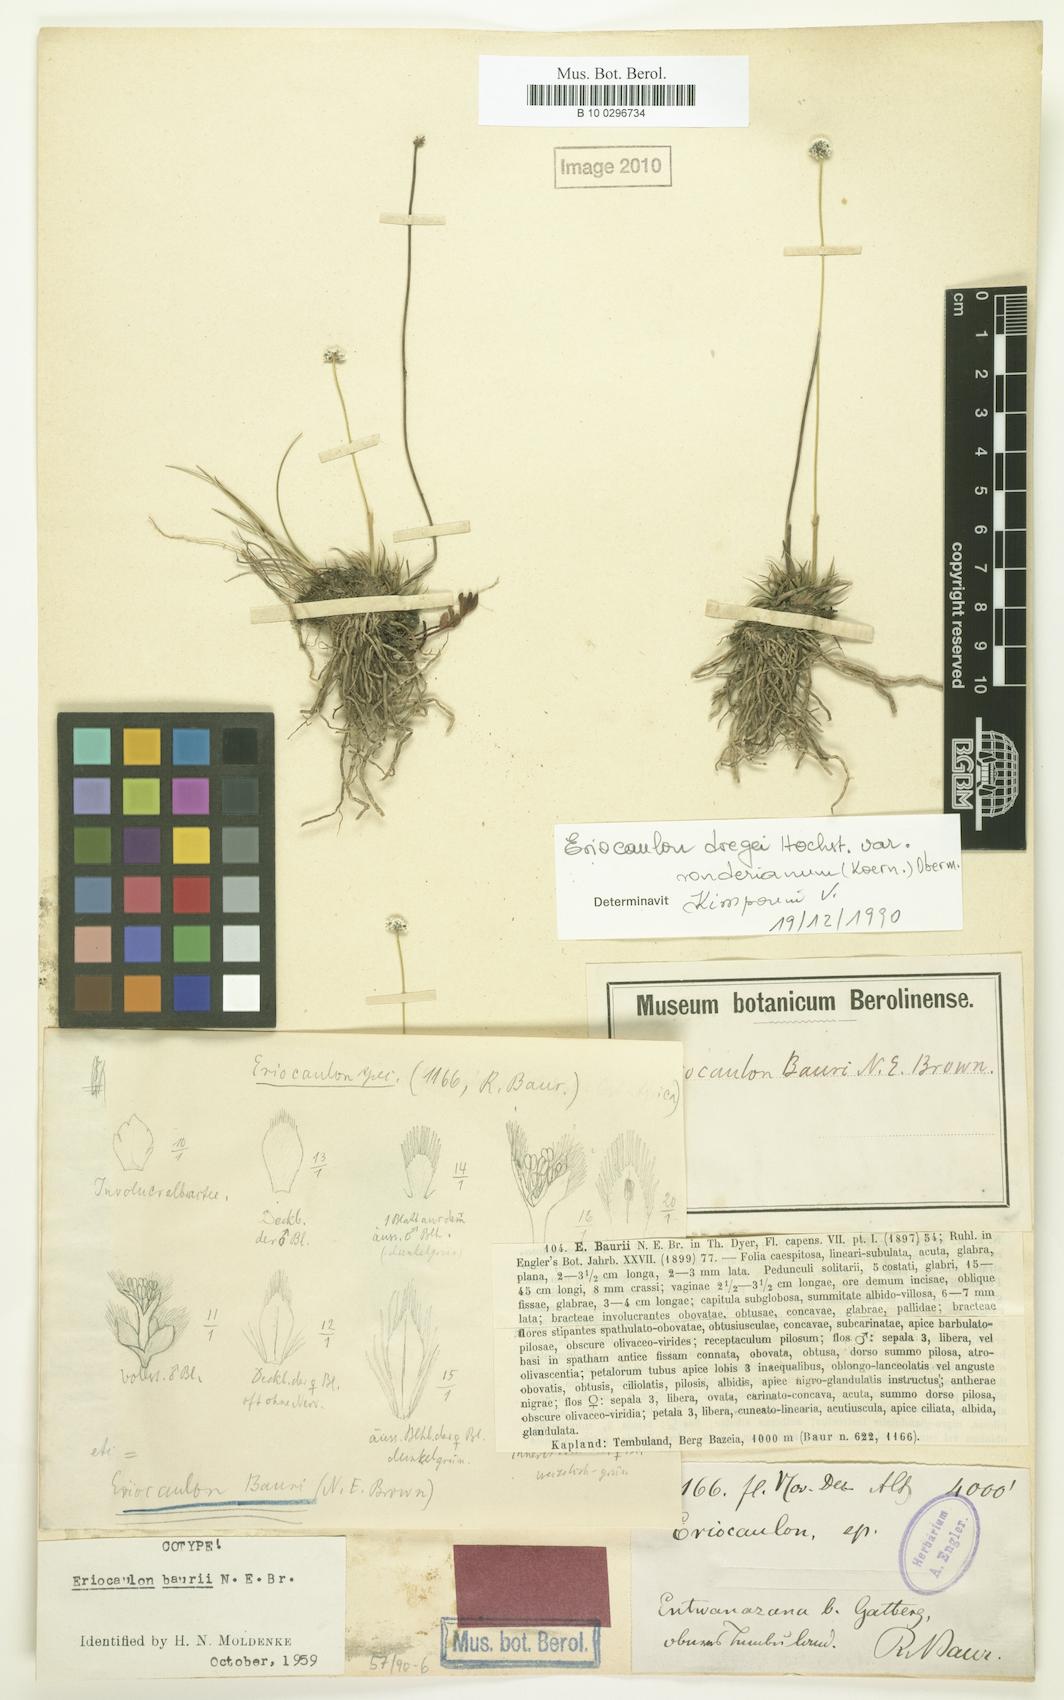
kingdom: Plantae
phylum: Tracheophyta
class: Liliopsida
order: Poales
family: Eriocaulaceae
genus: Eriocaulon
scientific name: Eriocaulon sonderianum
